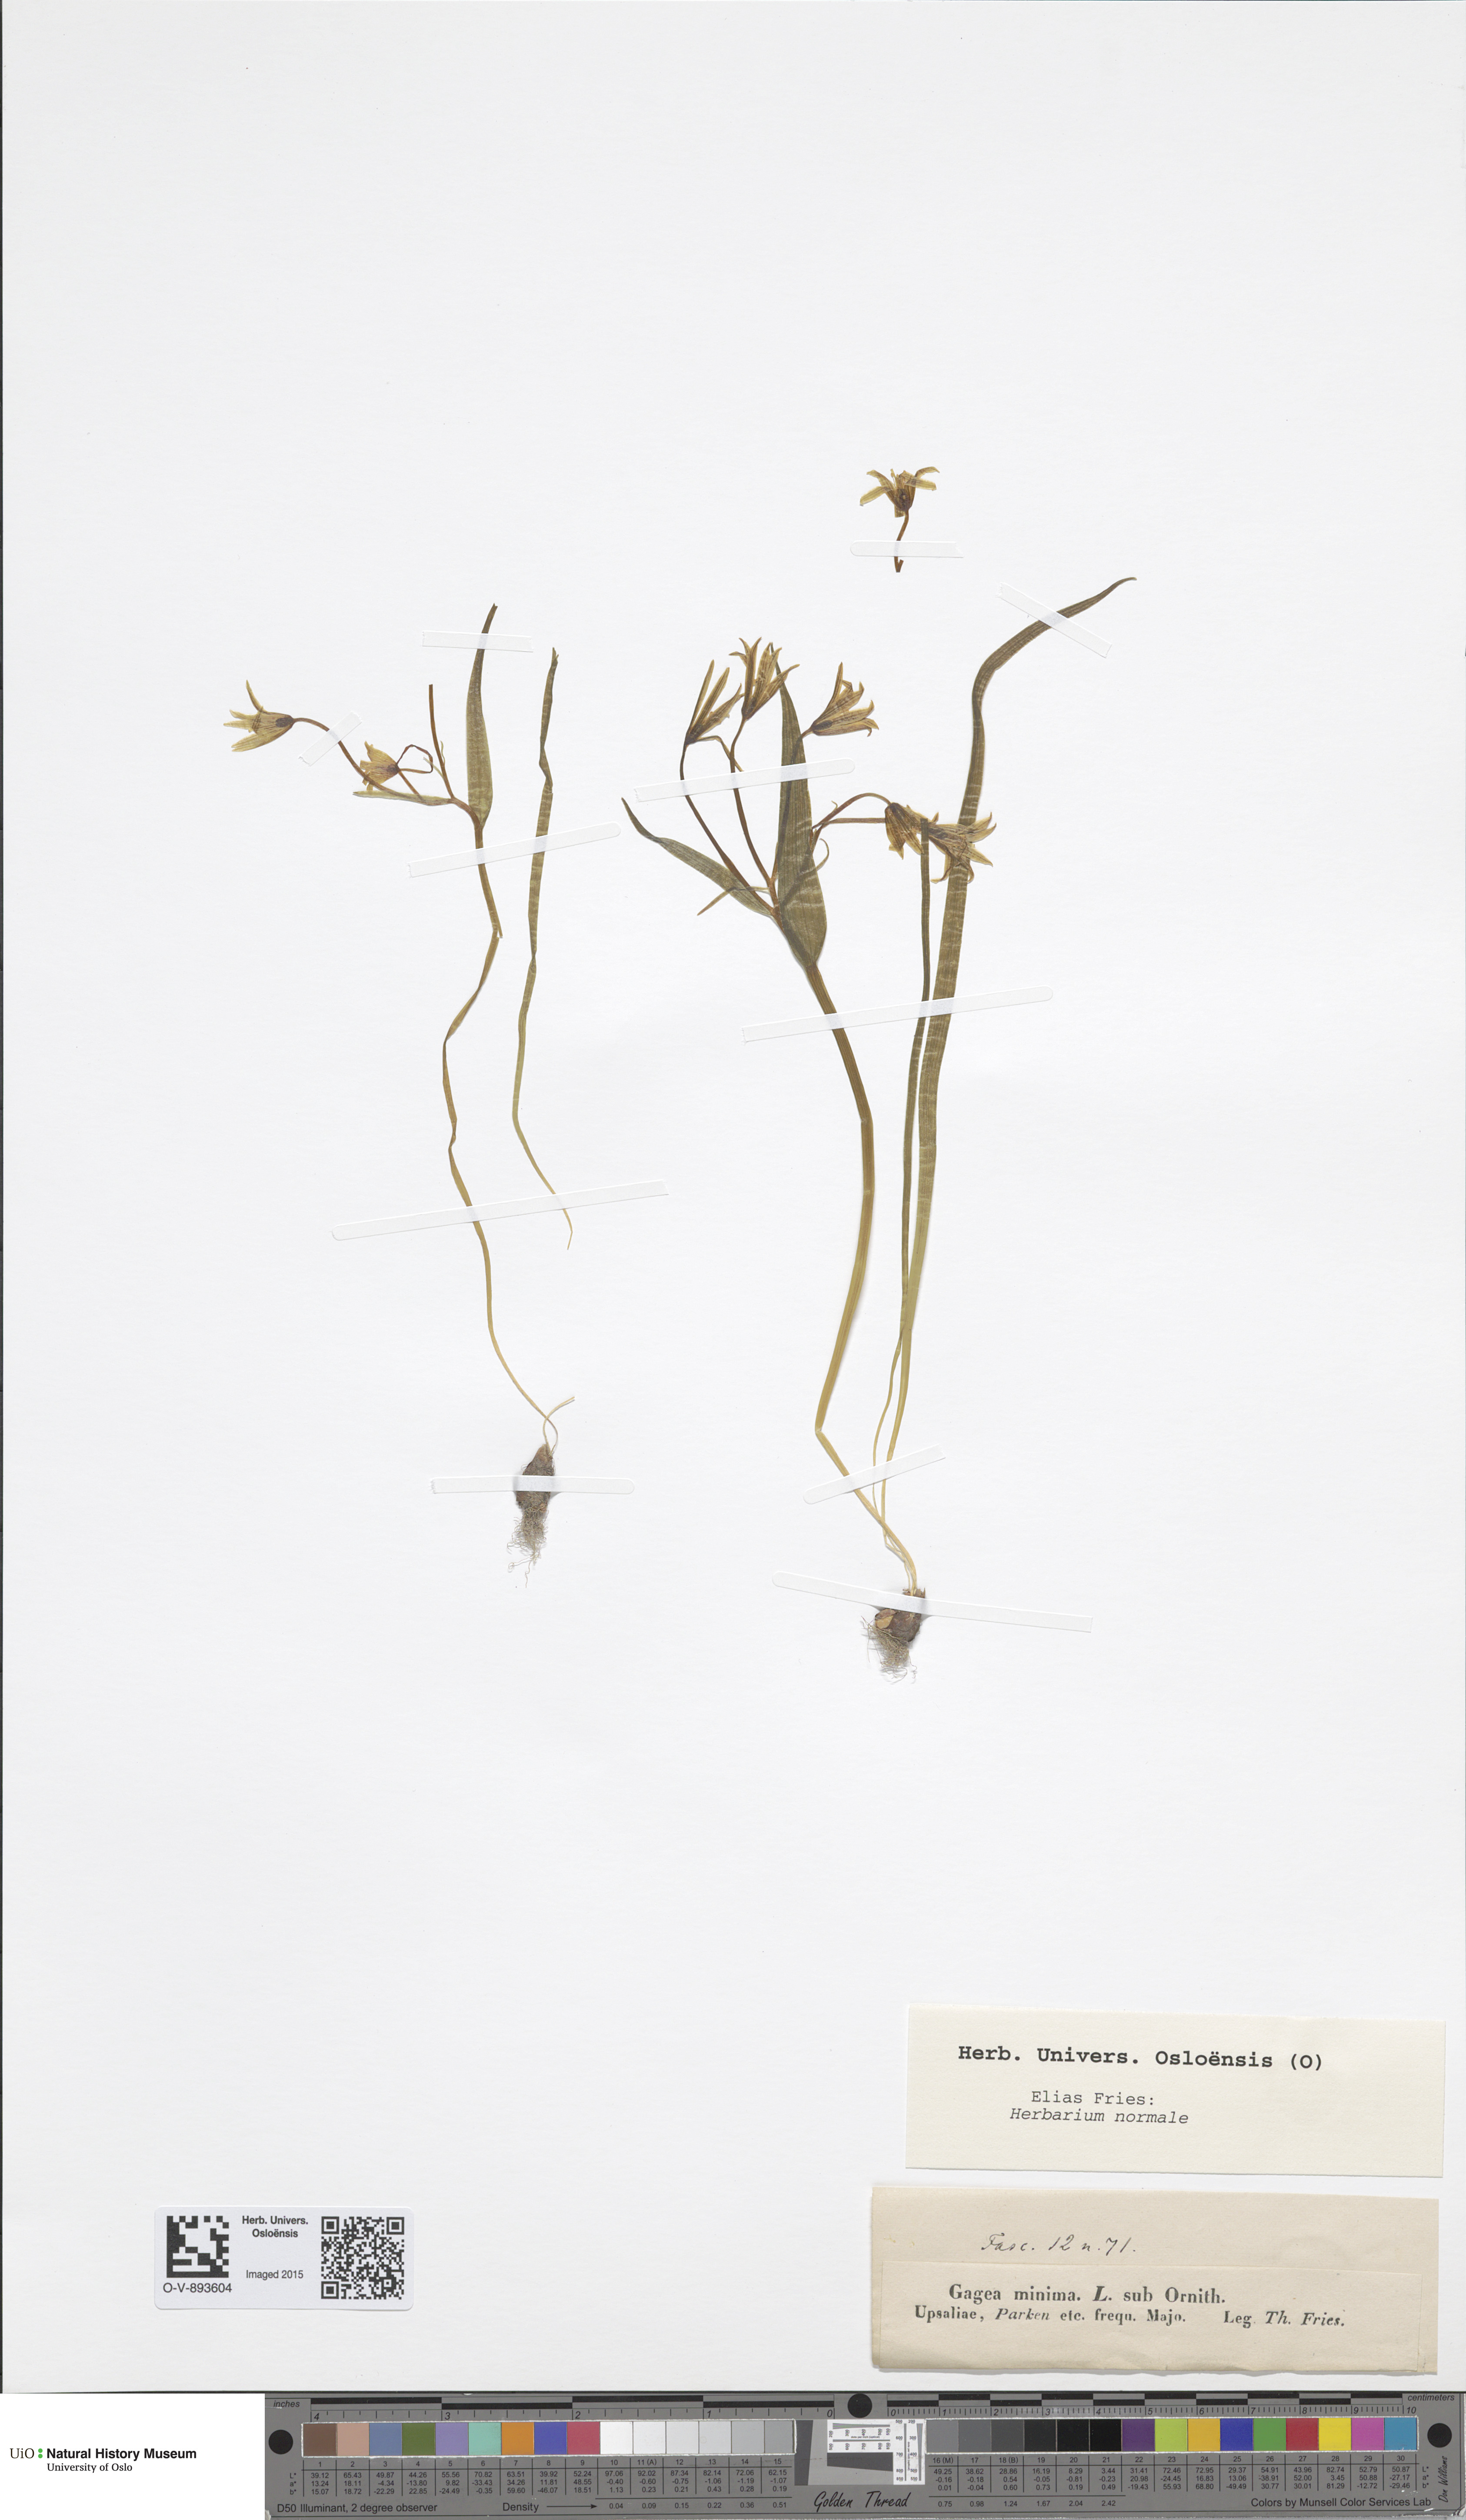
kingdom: Plantae
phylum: Tracheophyta
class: Liliopsida
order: Liliales
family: Liliaceae
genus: Gagea
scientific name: Gagea minima
